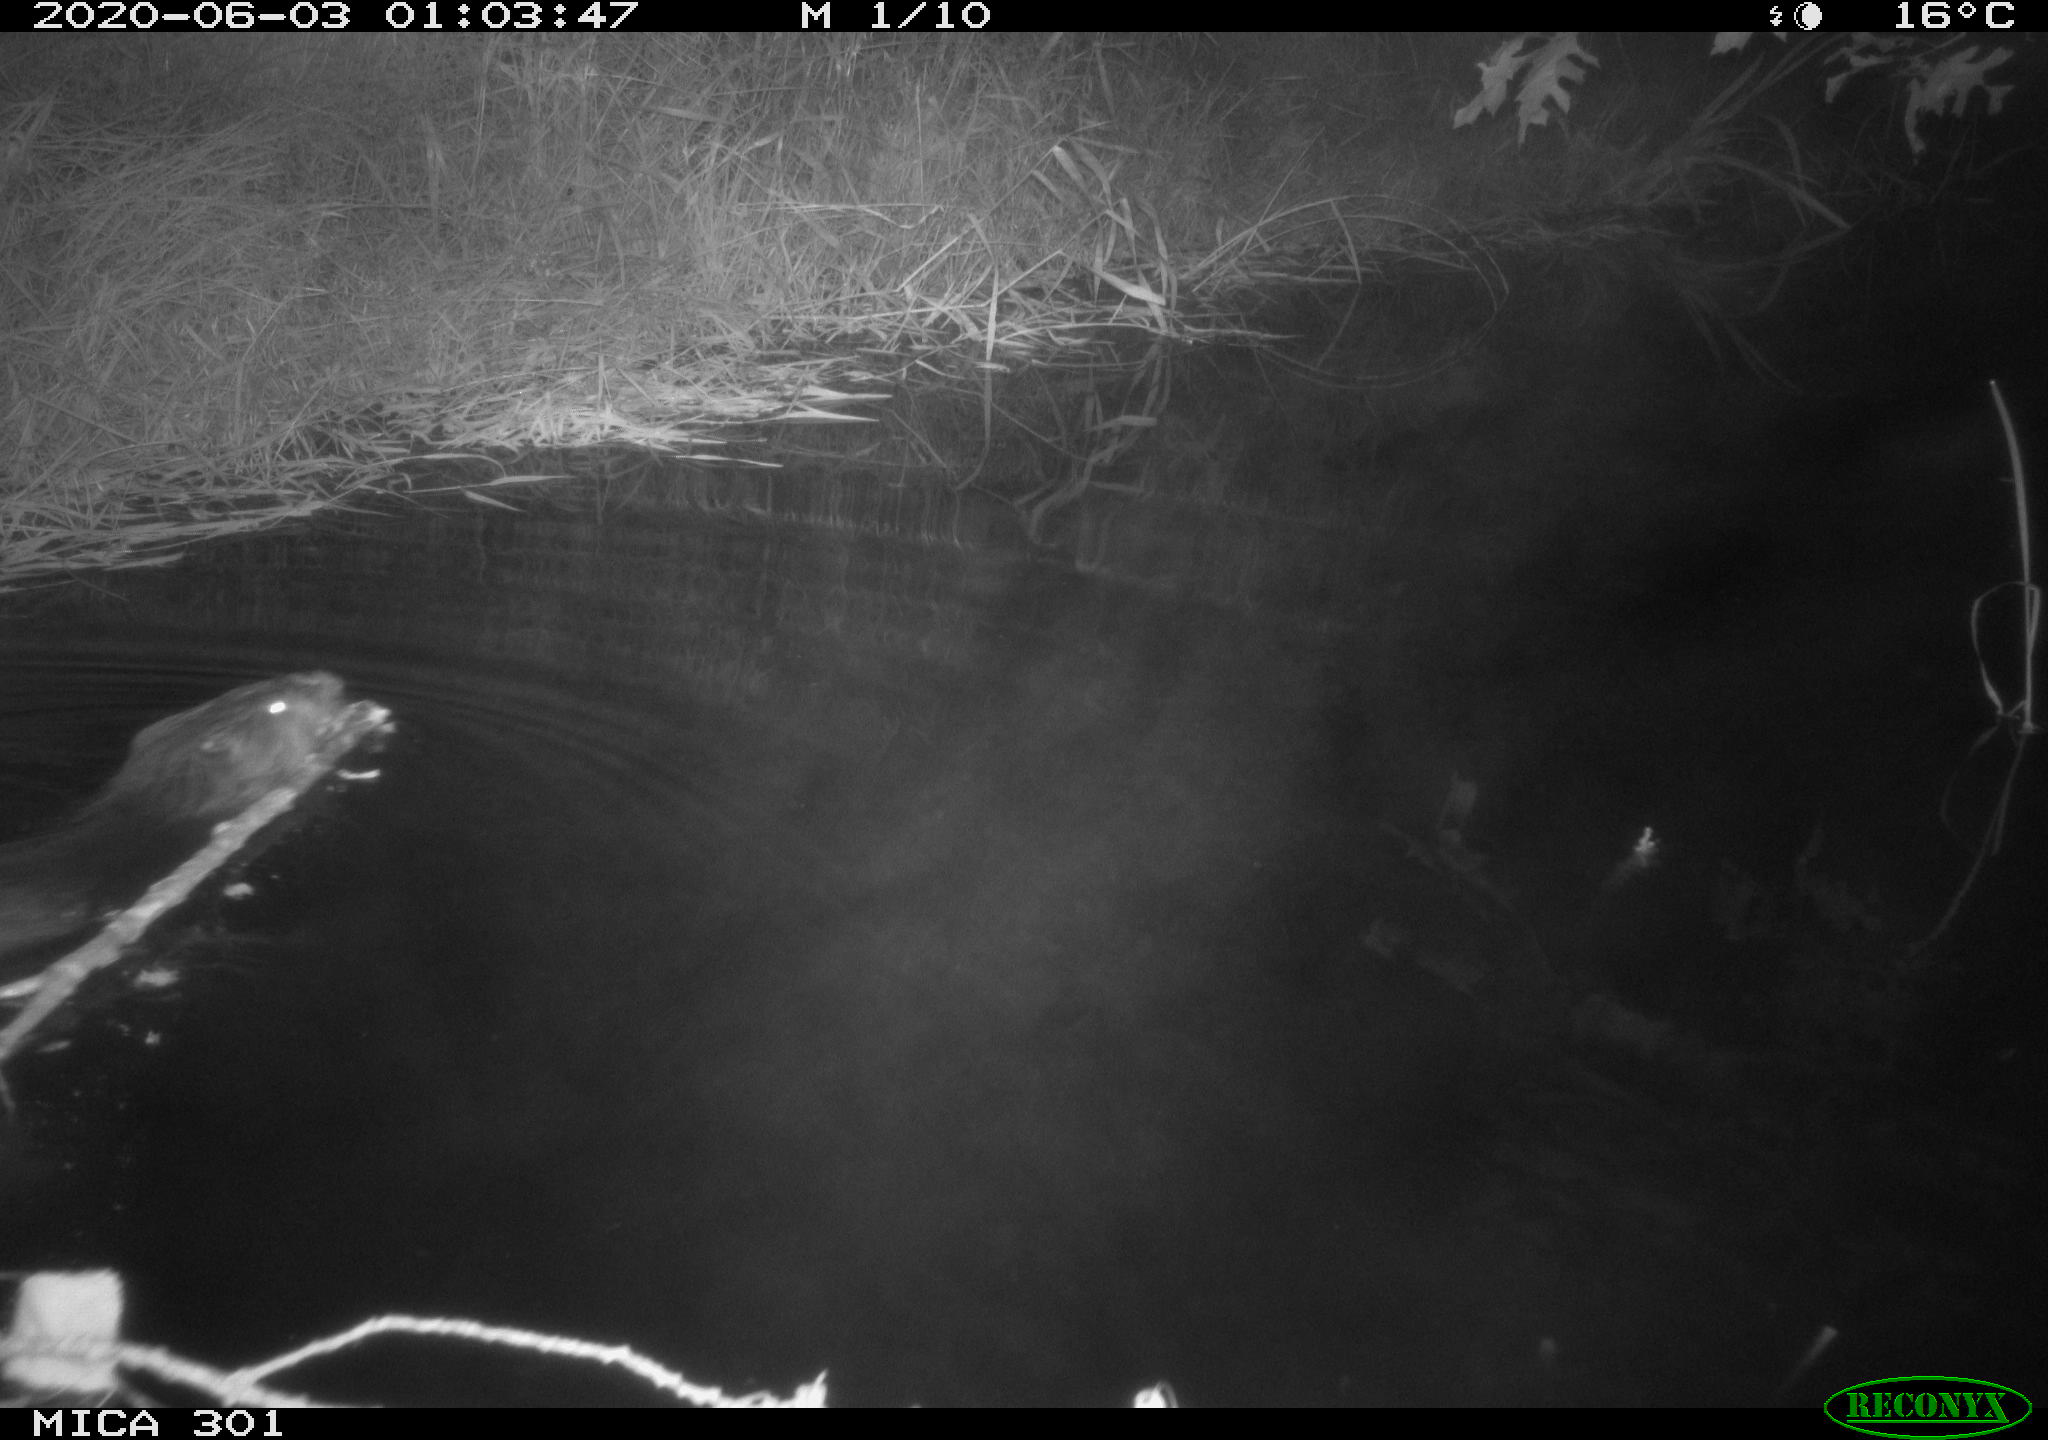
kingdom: Animalia
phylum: Chordata
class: Mammalia
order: Rodentia
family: Castoridae
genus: Castor
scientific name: Castor fiber
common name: Eurasian beaver
